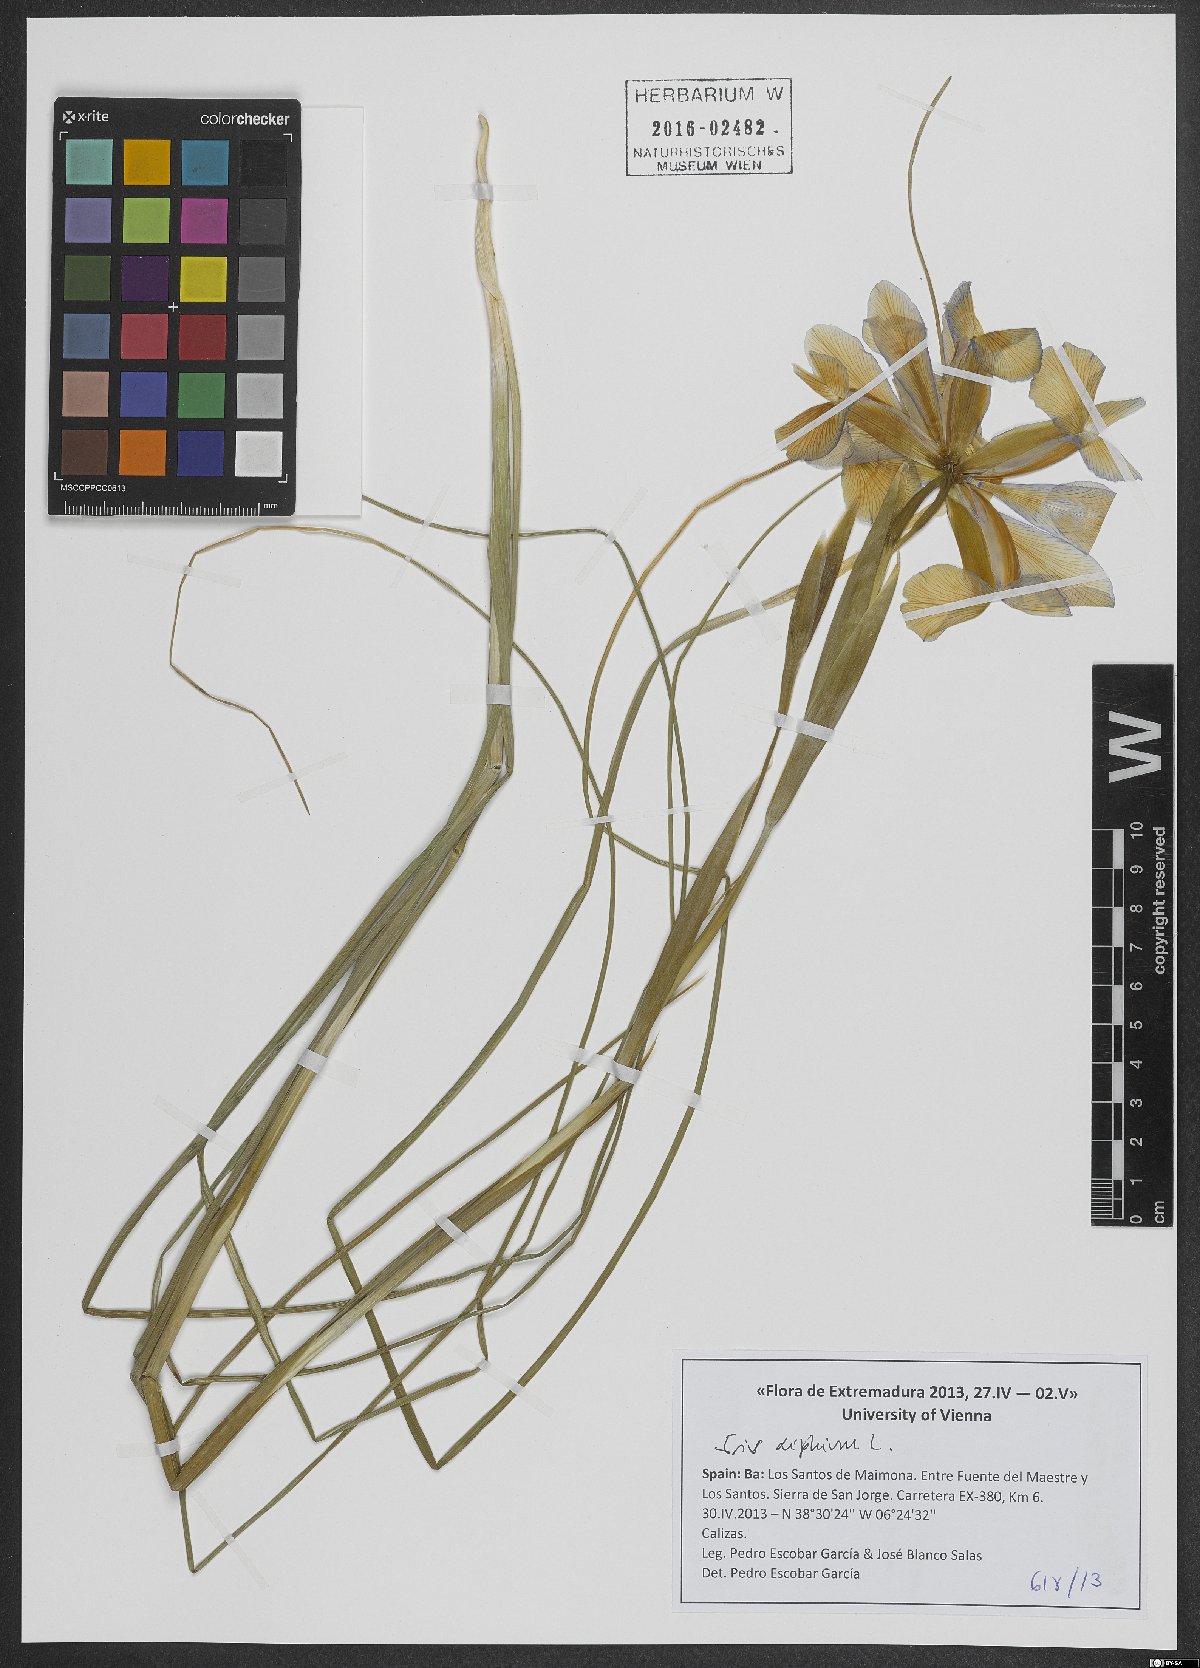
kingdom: Plantae
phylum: Tracheophyta
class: Liliopsida
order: Asparagales
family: Iridaceae
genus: Iris
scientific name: Iris xiphium
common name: Spanish iris
